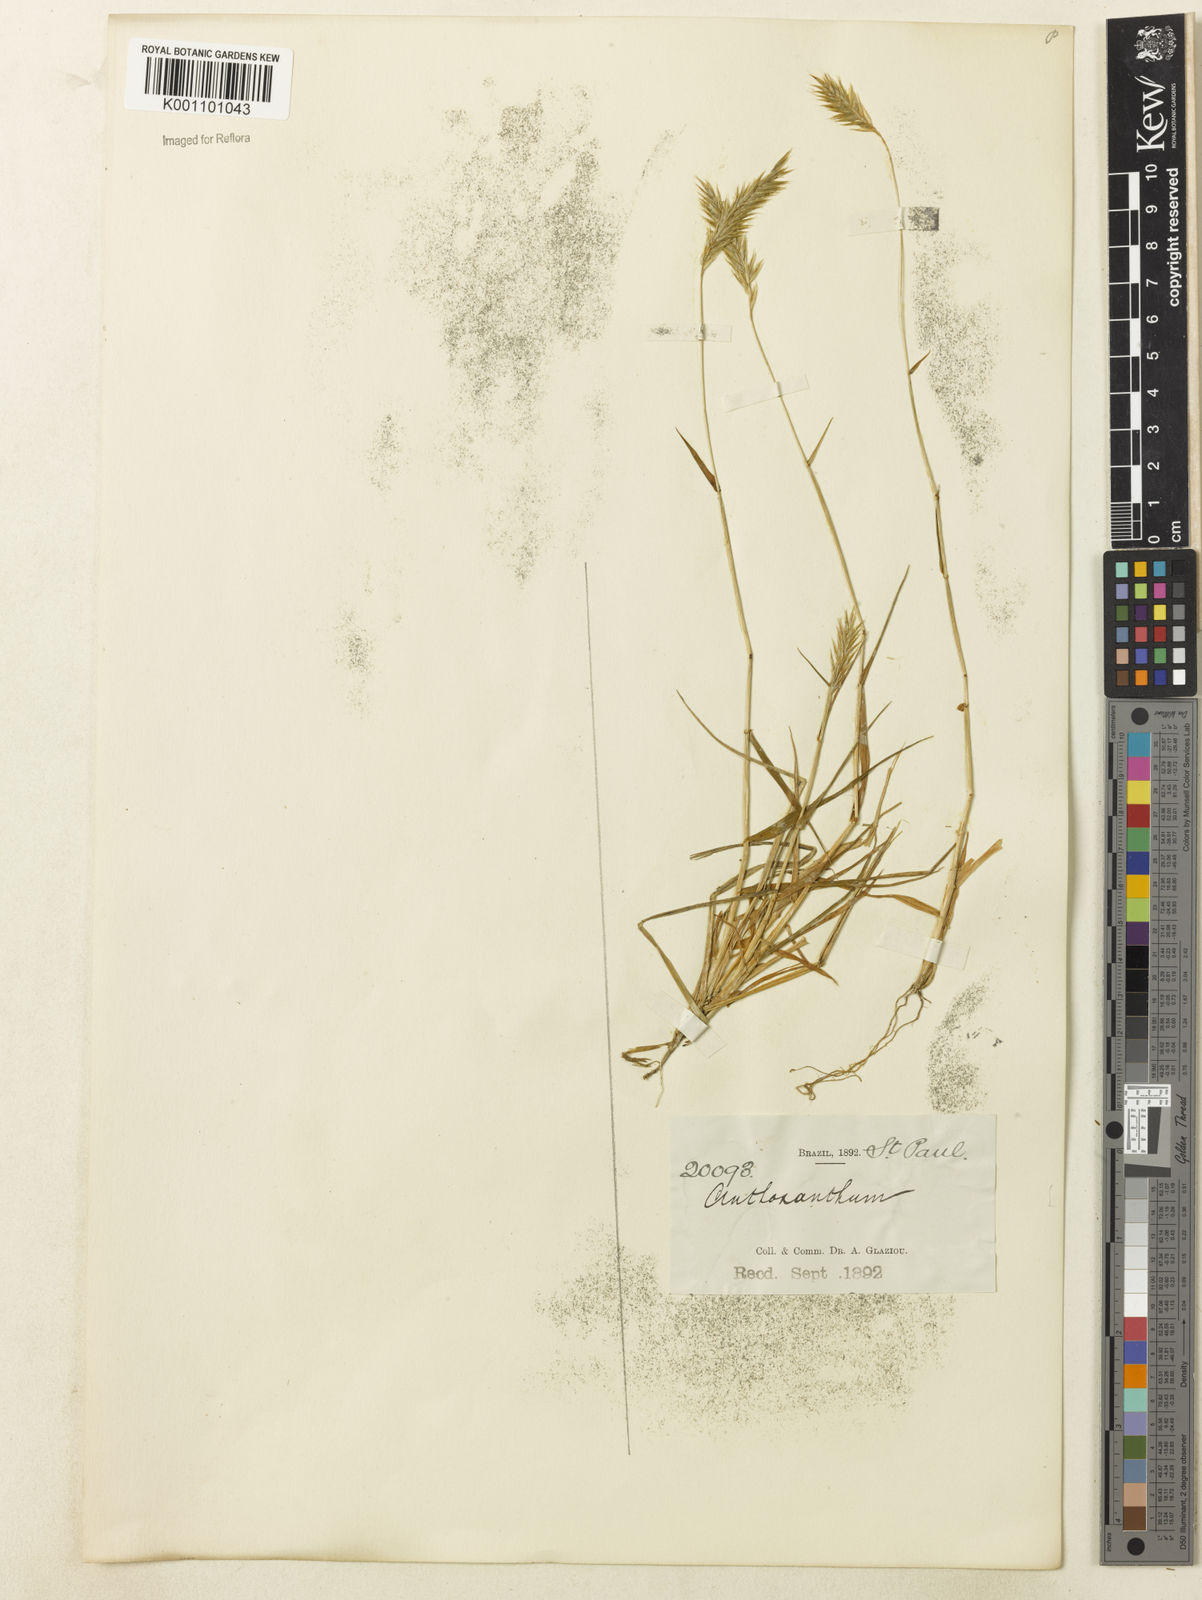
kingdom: Plantae
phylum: Tracheophyta
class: Liliopsida
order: Poales
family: Poaceae
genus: Anthoxanthum
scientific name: Anthoxanthum odoratum
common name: Sweet vernalgrass
